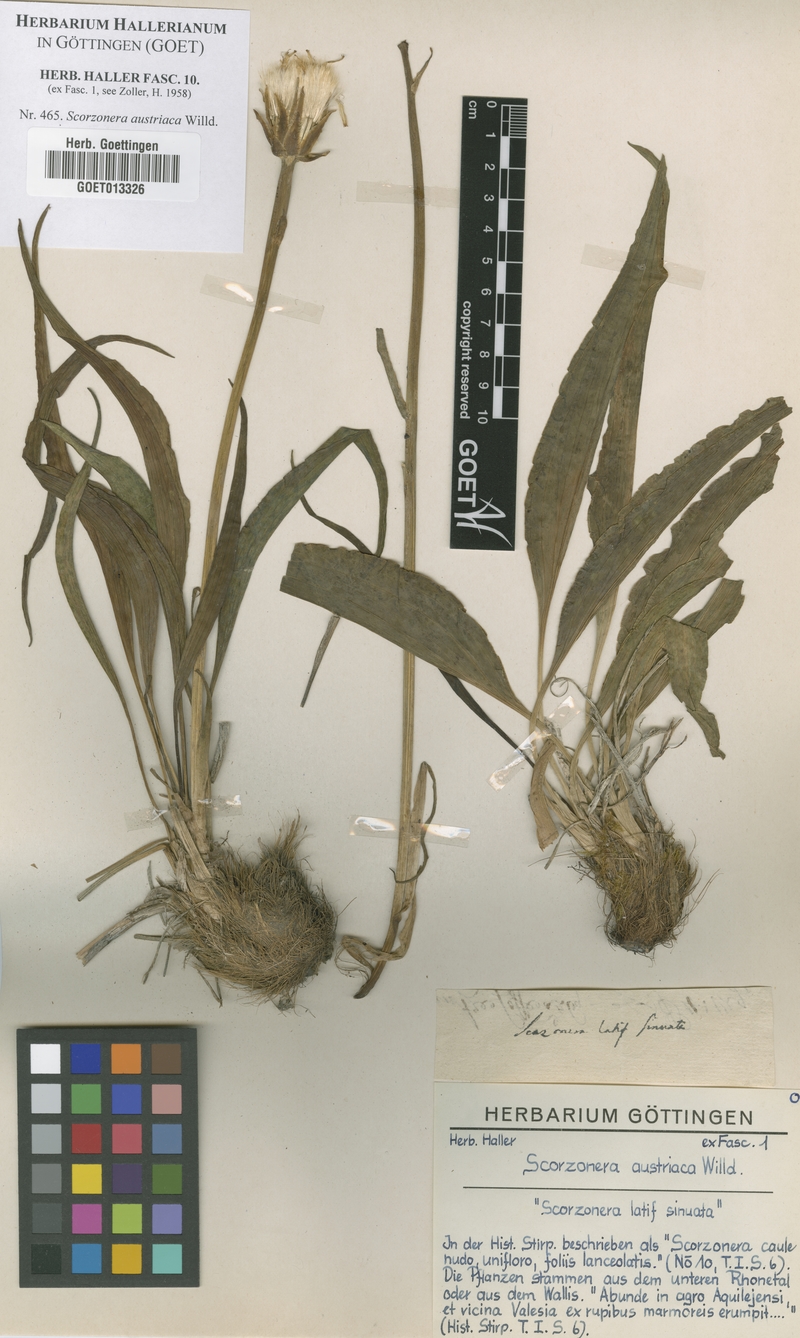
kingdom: Plantae
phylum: Tracheophyta
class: Magnoliopsida
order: Asterales
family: Asteraceae
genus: Takhtajaniantha
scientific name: Takhtajaniantha austriaca
